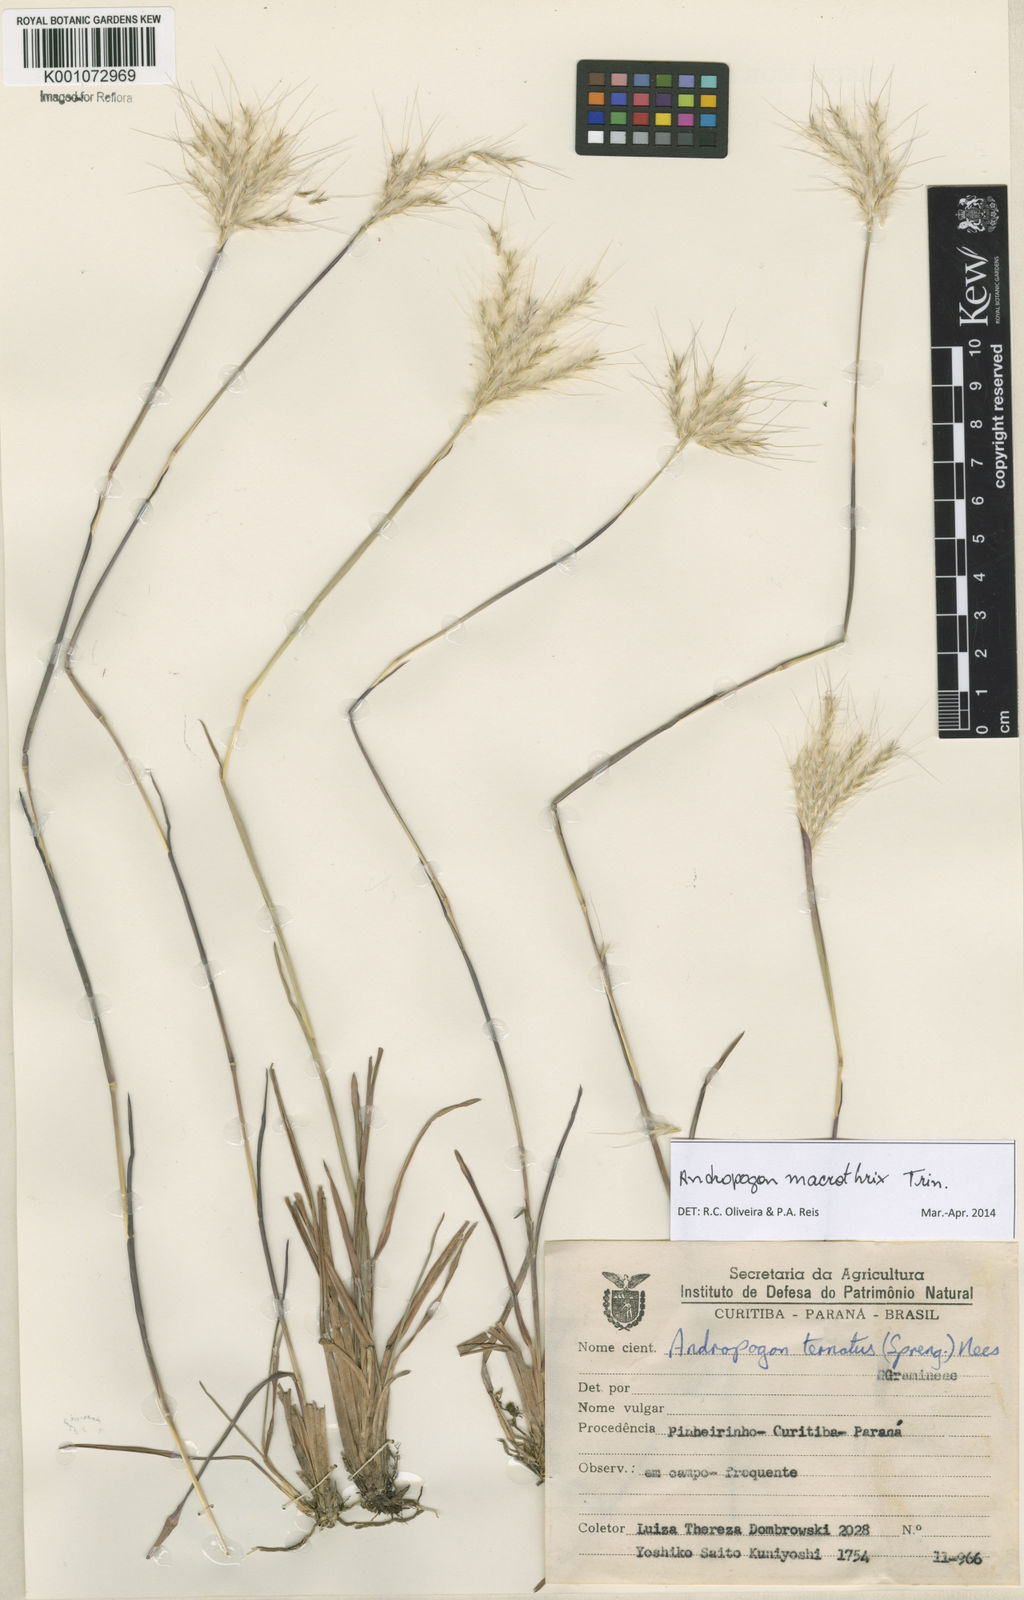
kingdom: Plantae
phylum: Tracheophyta
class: Liliopsida
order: Poales
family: Poaceae
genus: Andropogon
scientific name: Andropogon macrothrix
